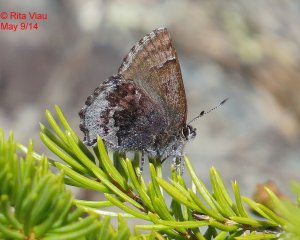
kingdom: Animalia
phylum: Arthropoda
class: Insecta
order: Lepidoptera
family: Lycaenidae
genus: Callophrys
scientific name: Callophrys polios
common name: Hoary Elfin
